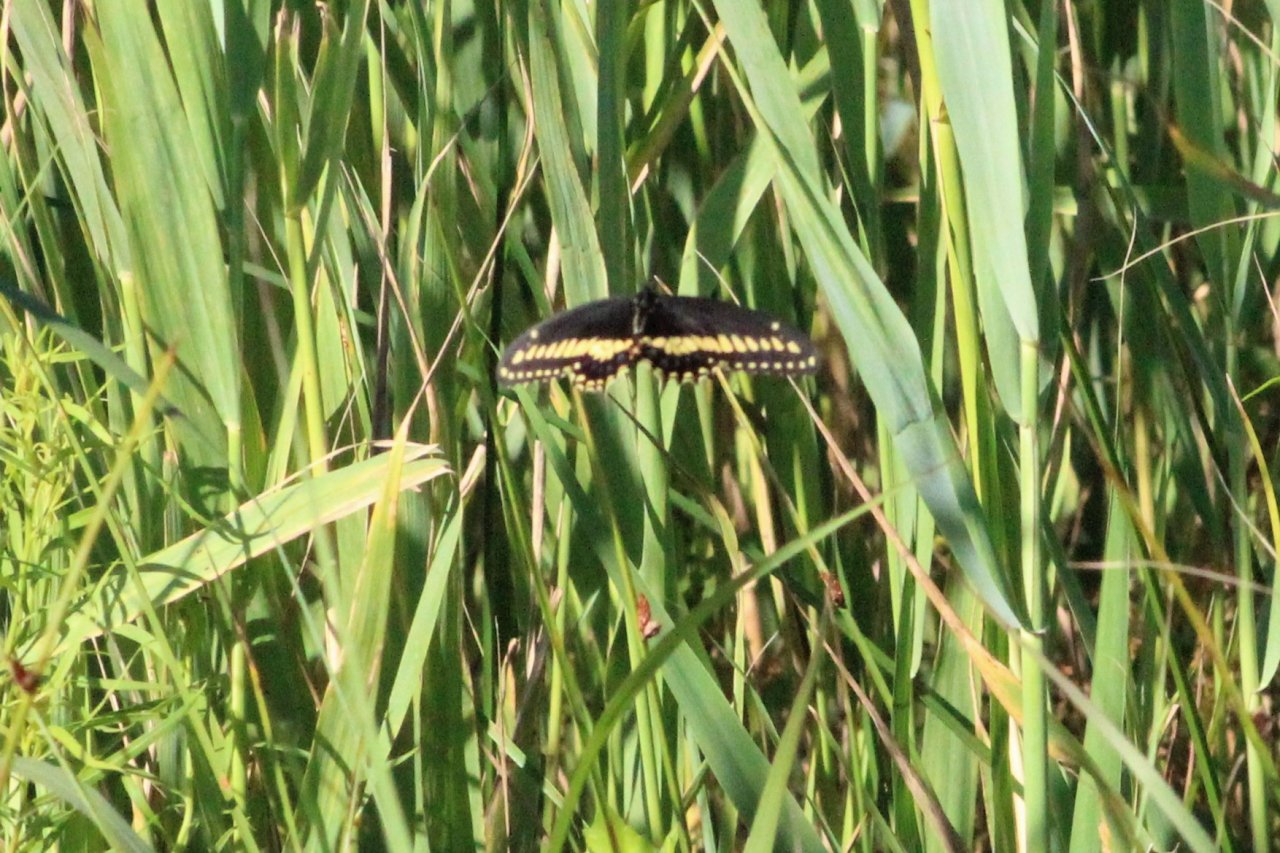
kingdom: Animalia
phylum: Arthropoda
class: Insecta
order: Lepidoptera
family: Papilionidae
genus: Papilio
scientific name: Papilio polyxenes
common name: Black Swallowtail
